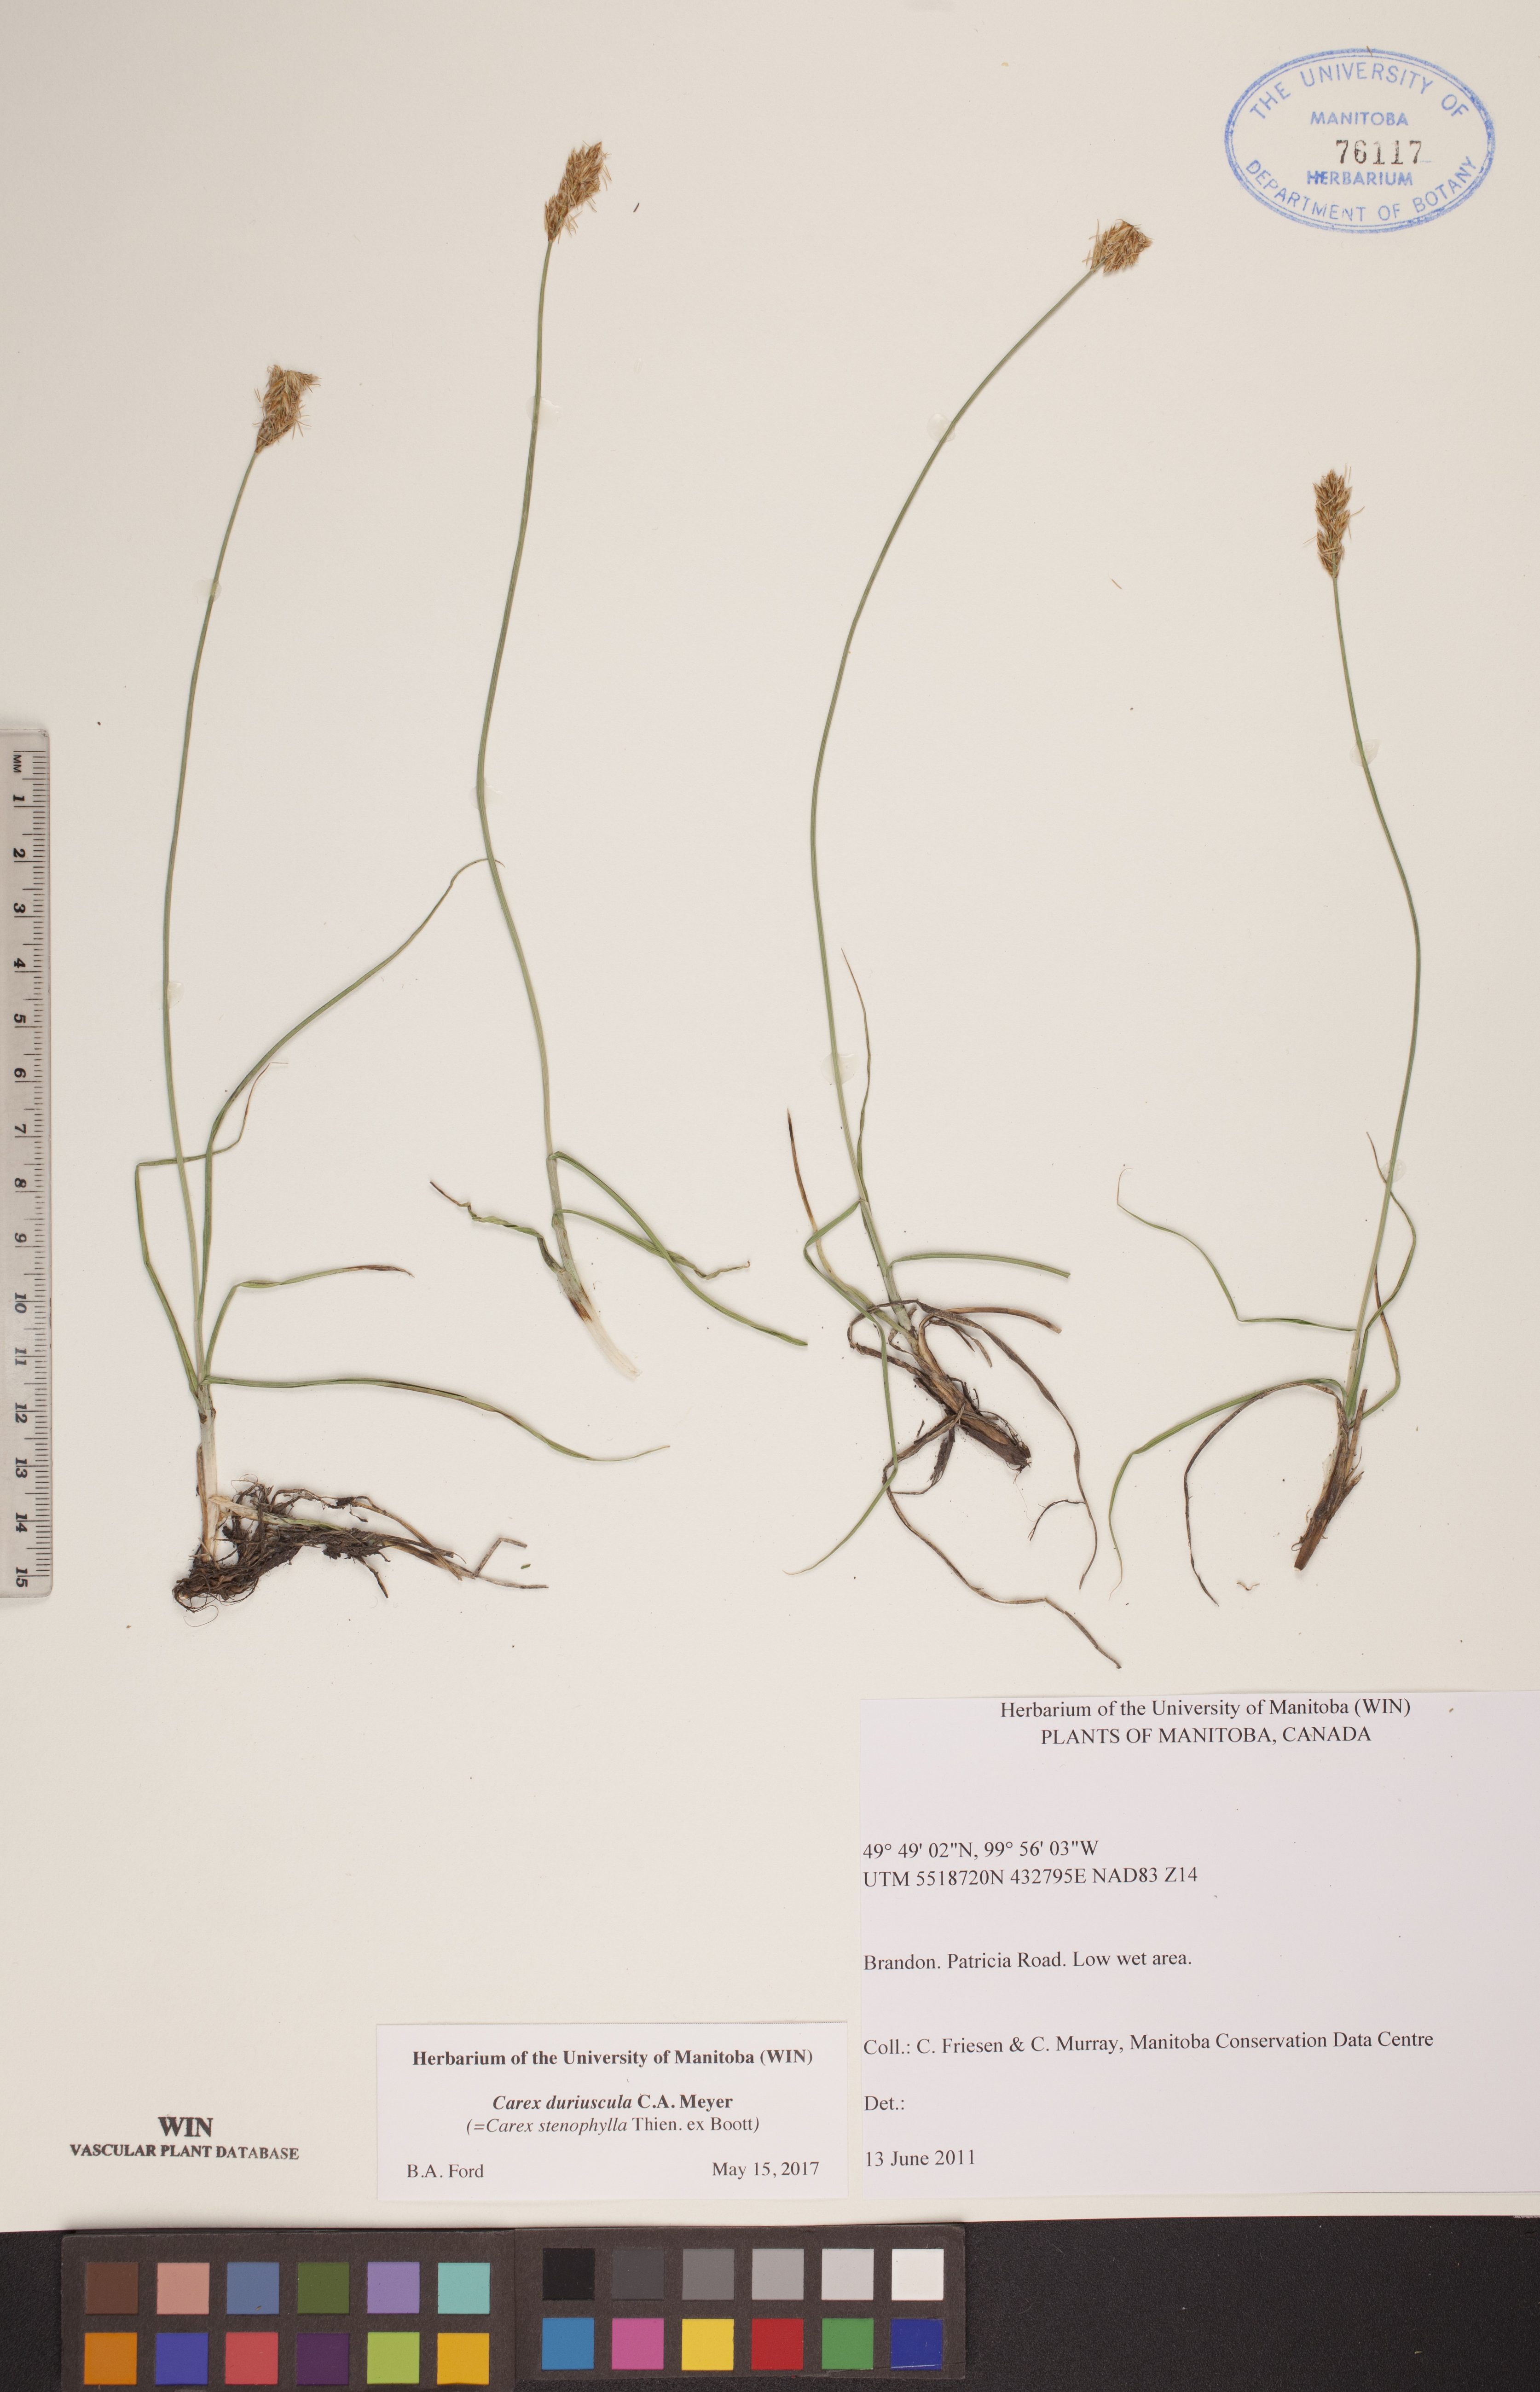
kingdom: Plantae
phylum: Tracheophyta
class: Liliopsida
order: Poales
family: Cyperaceae
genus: Carex
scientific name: Carex duriuscula
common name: Involute-leaved sedge
